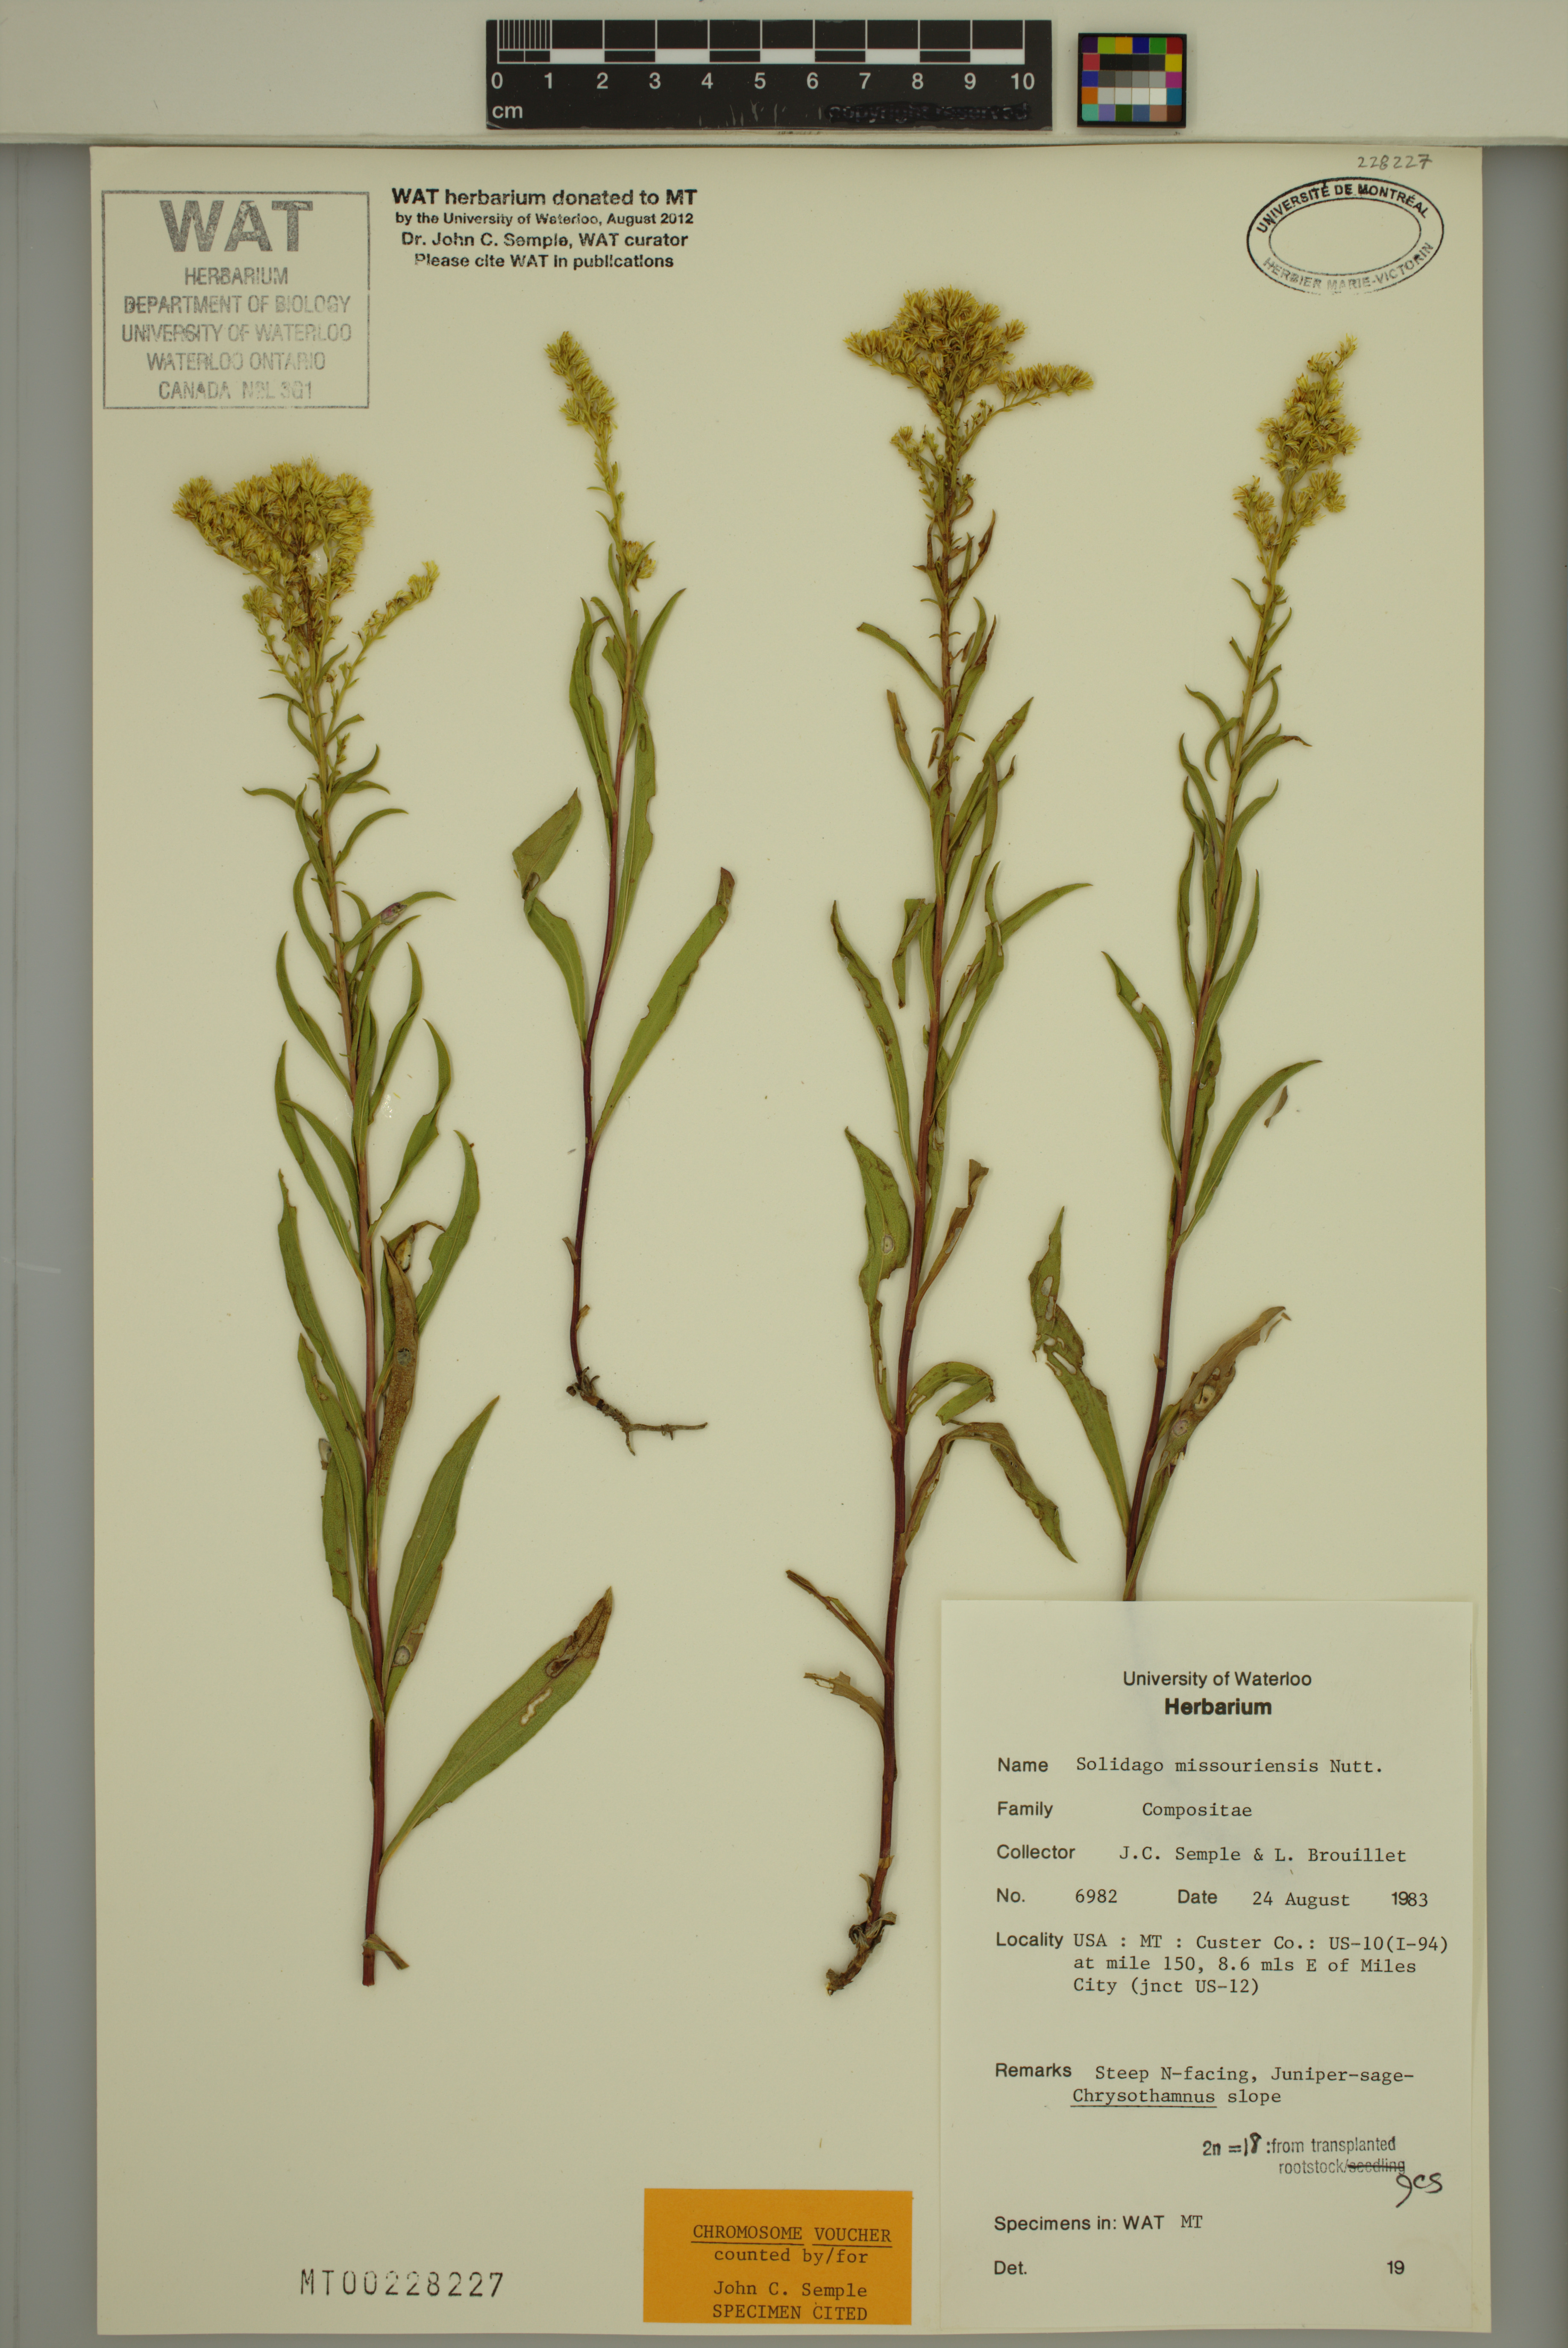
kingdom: Plantae
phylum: Tracheophyta
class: Magnoliopsida
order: Asterales
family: Asteraceae
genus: Solidago
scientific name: Solidago missouriensis
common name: Prairie goldenrod
